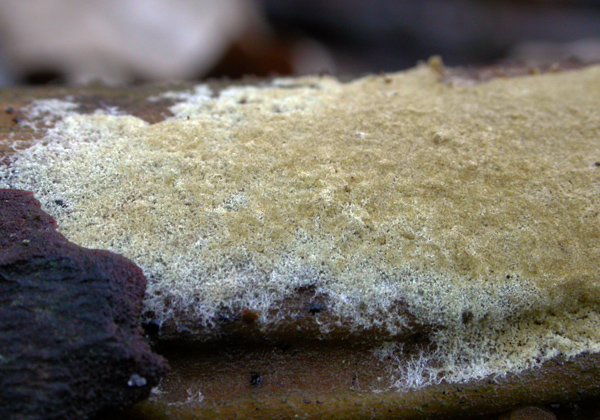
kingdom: Fungi
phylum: Basidiomycota
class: Agaricomycetes
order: Boletales
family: Coniophoraceae
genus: Coniophora
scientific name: Coniophora arida
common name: tynd tømmersvamp
